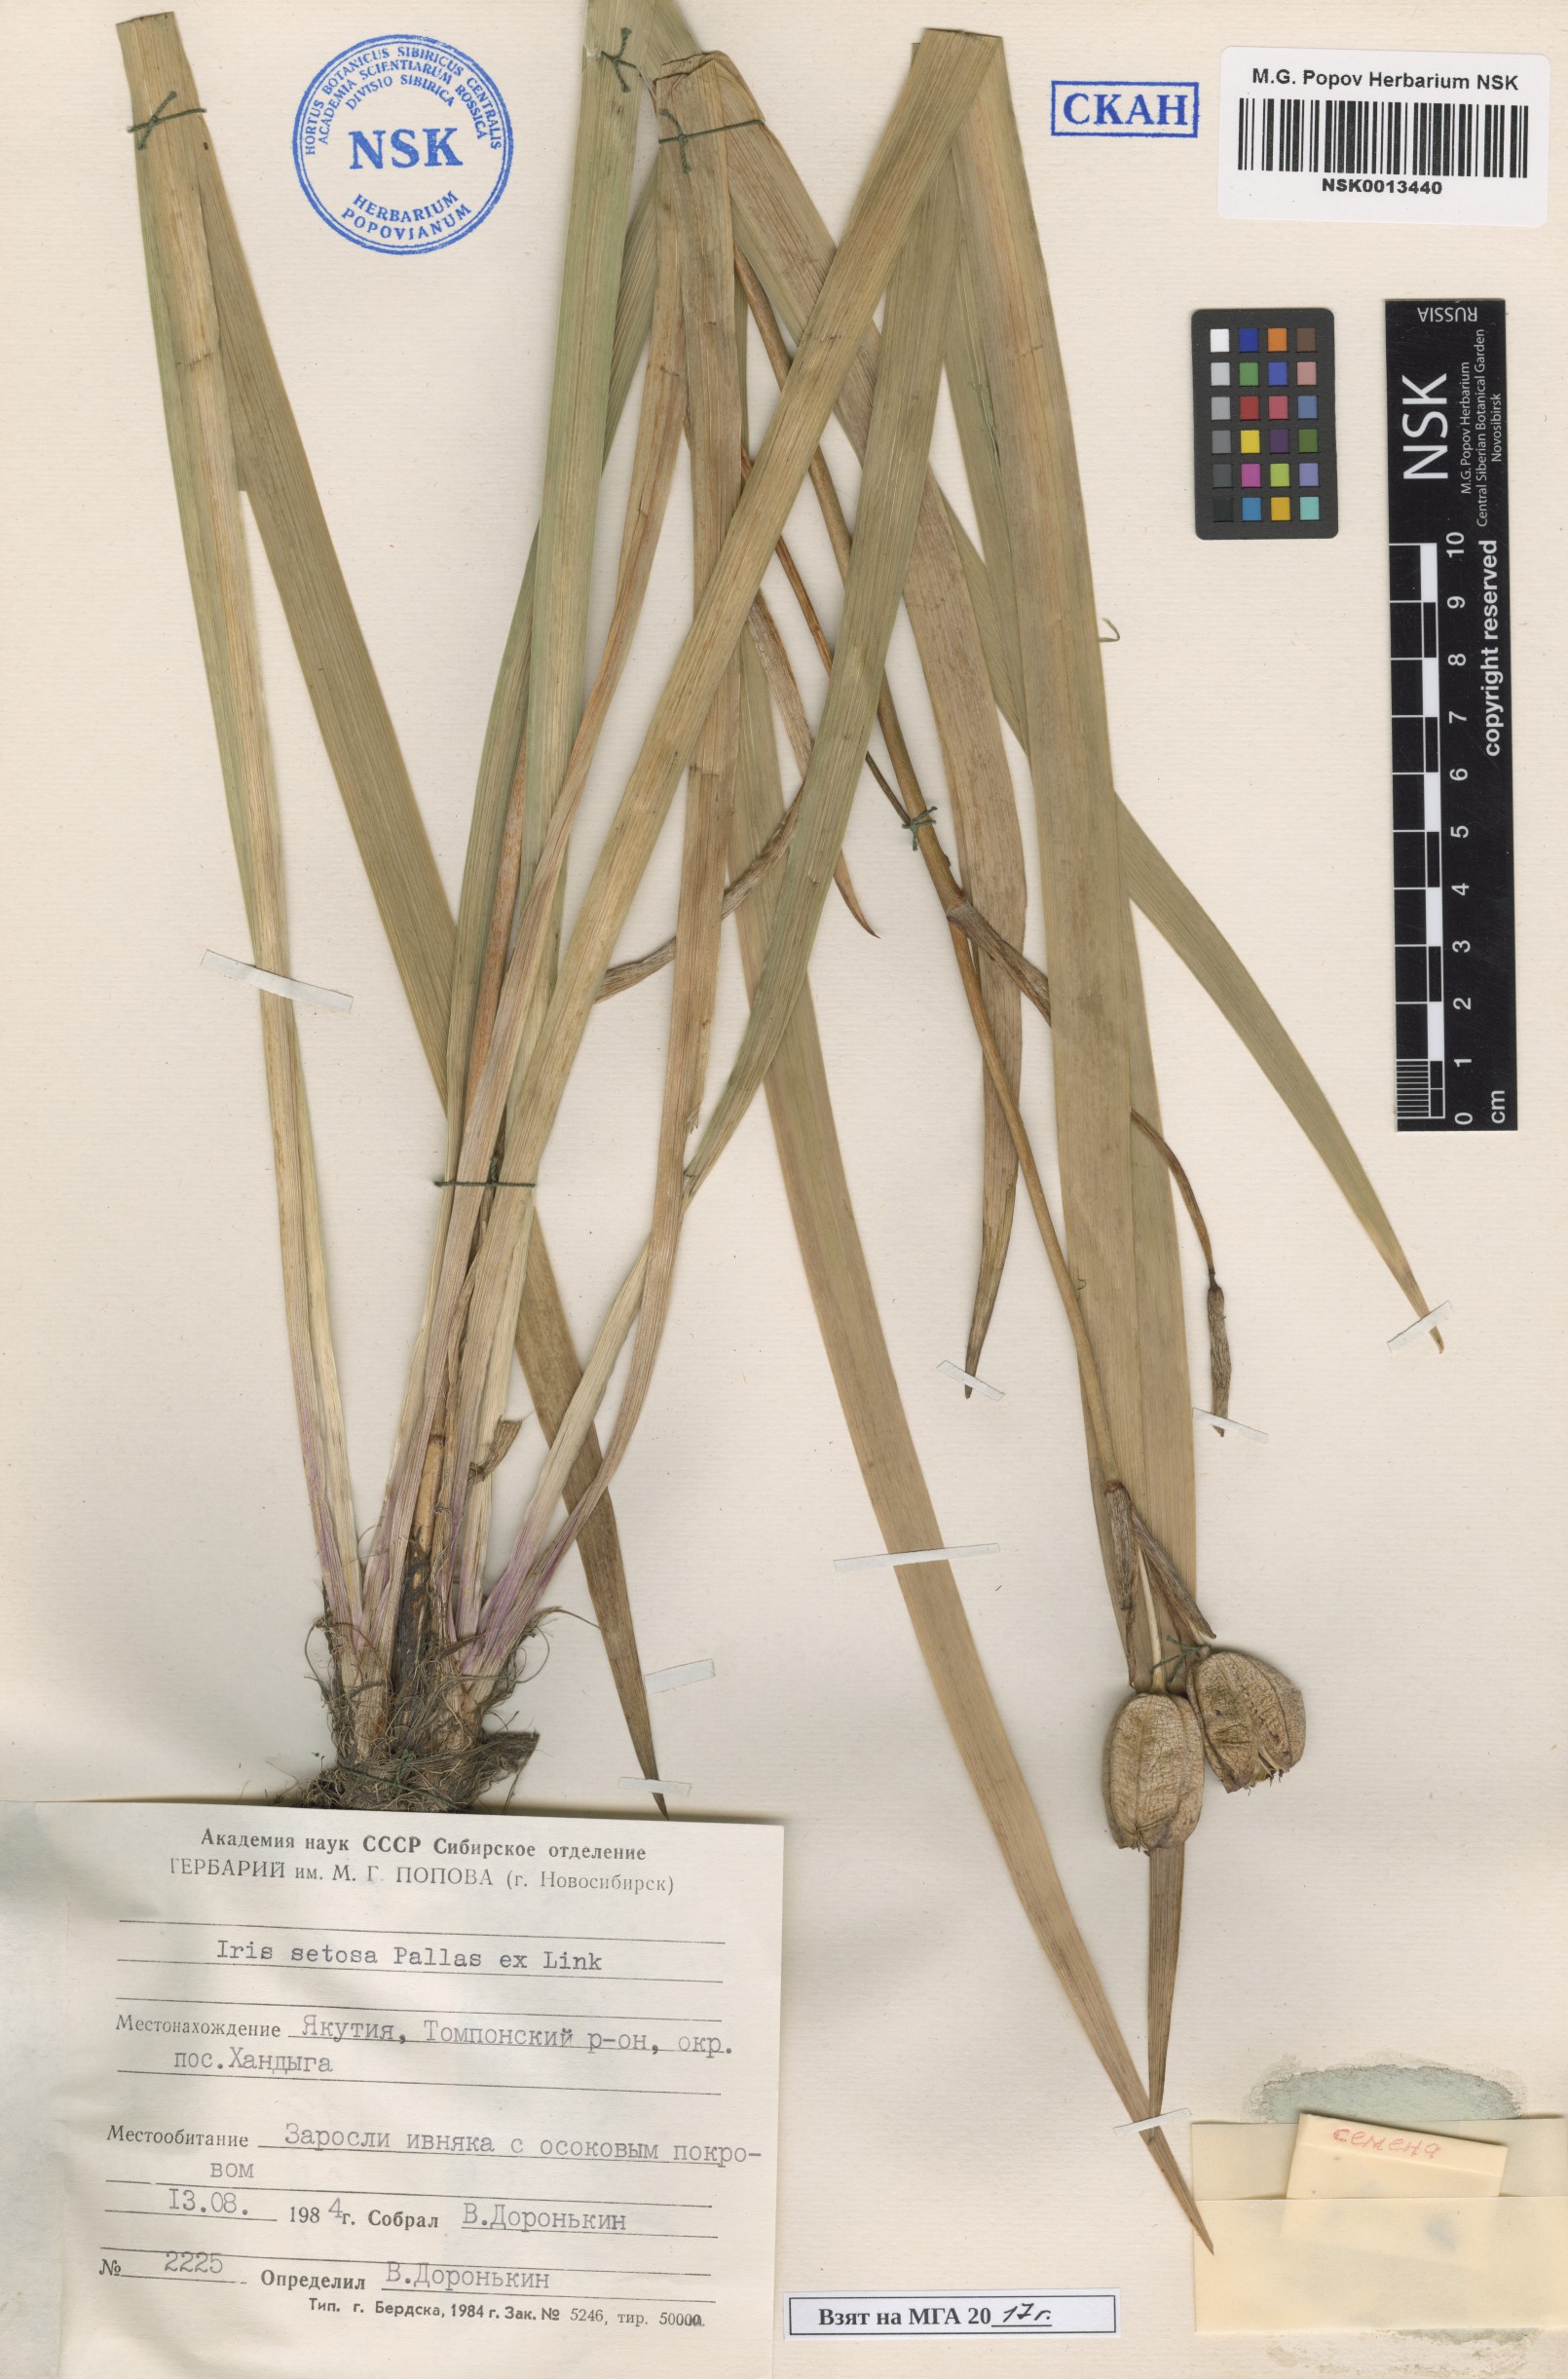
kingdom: Plantae
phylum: Tracheophyta
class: Liliopsida
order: Asparagales
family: Iridaceae
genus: Iris
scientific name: Iris setosa
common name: Arctic blue flag
